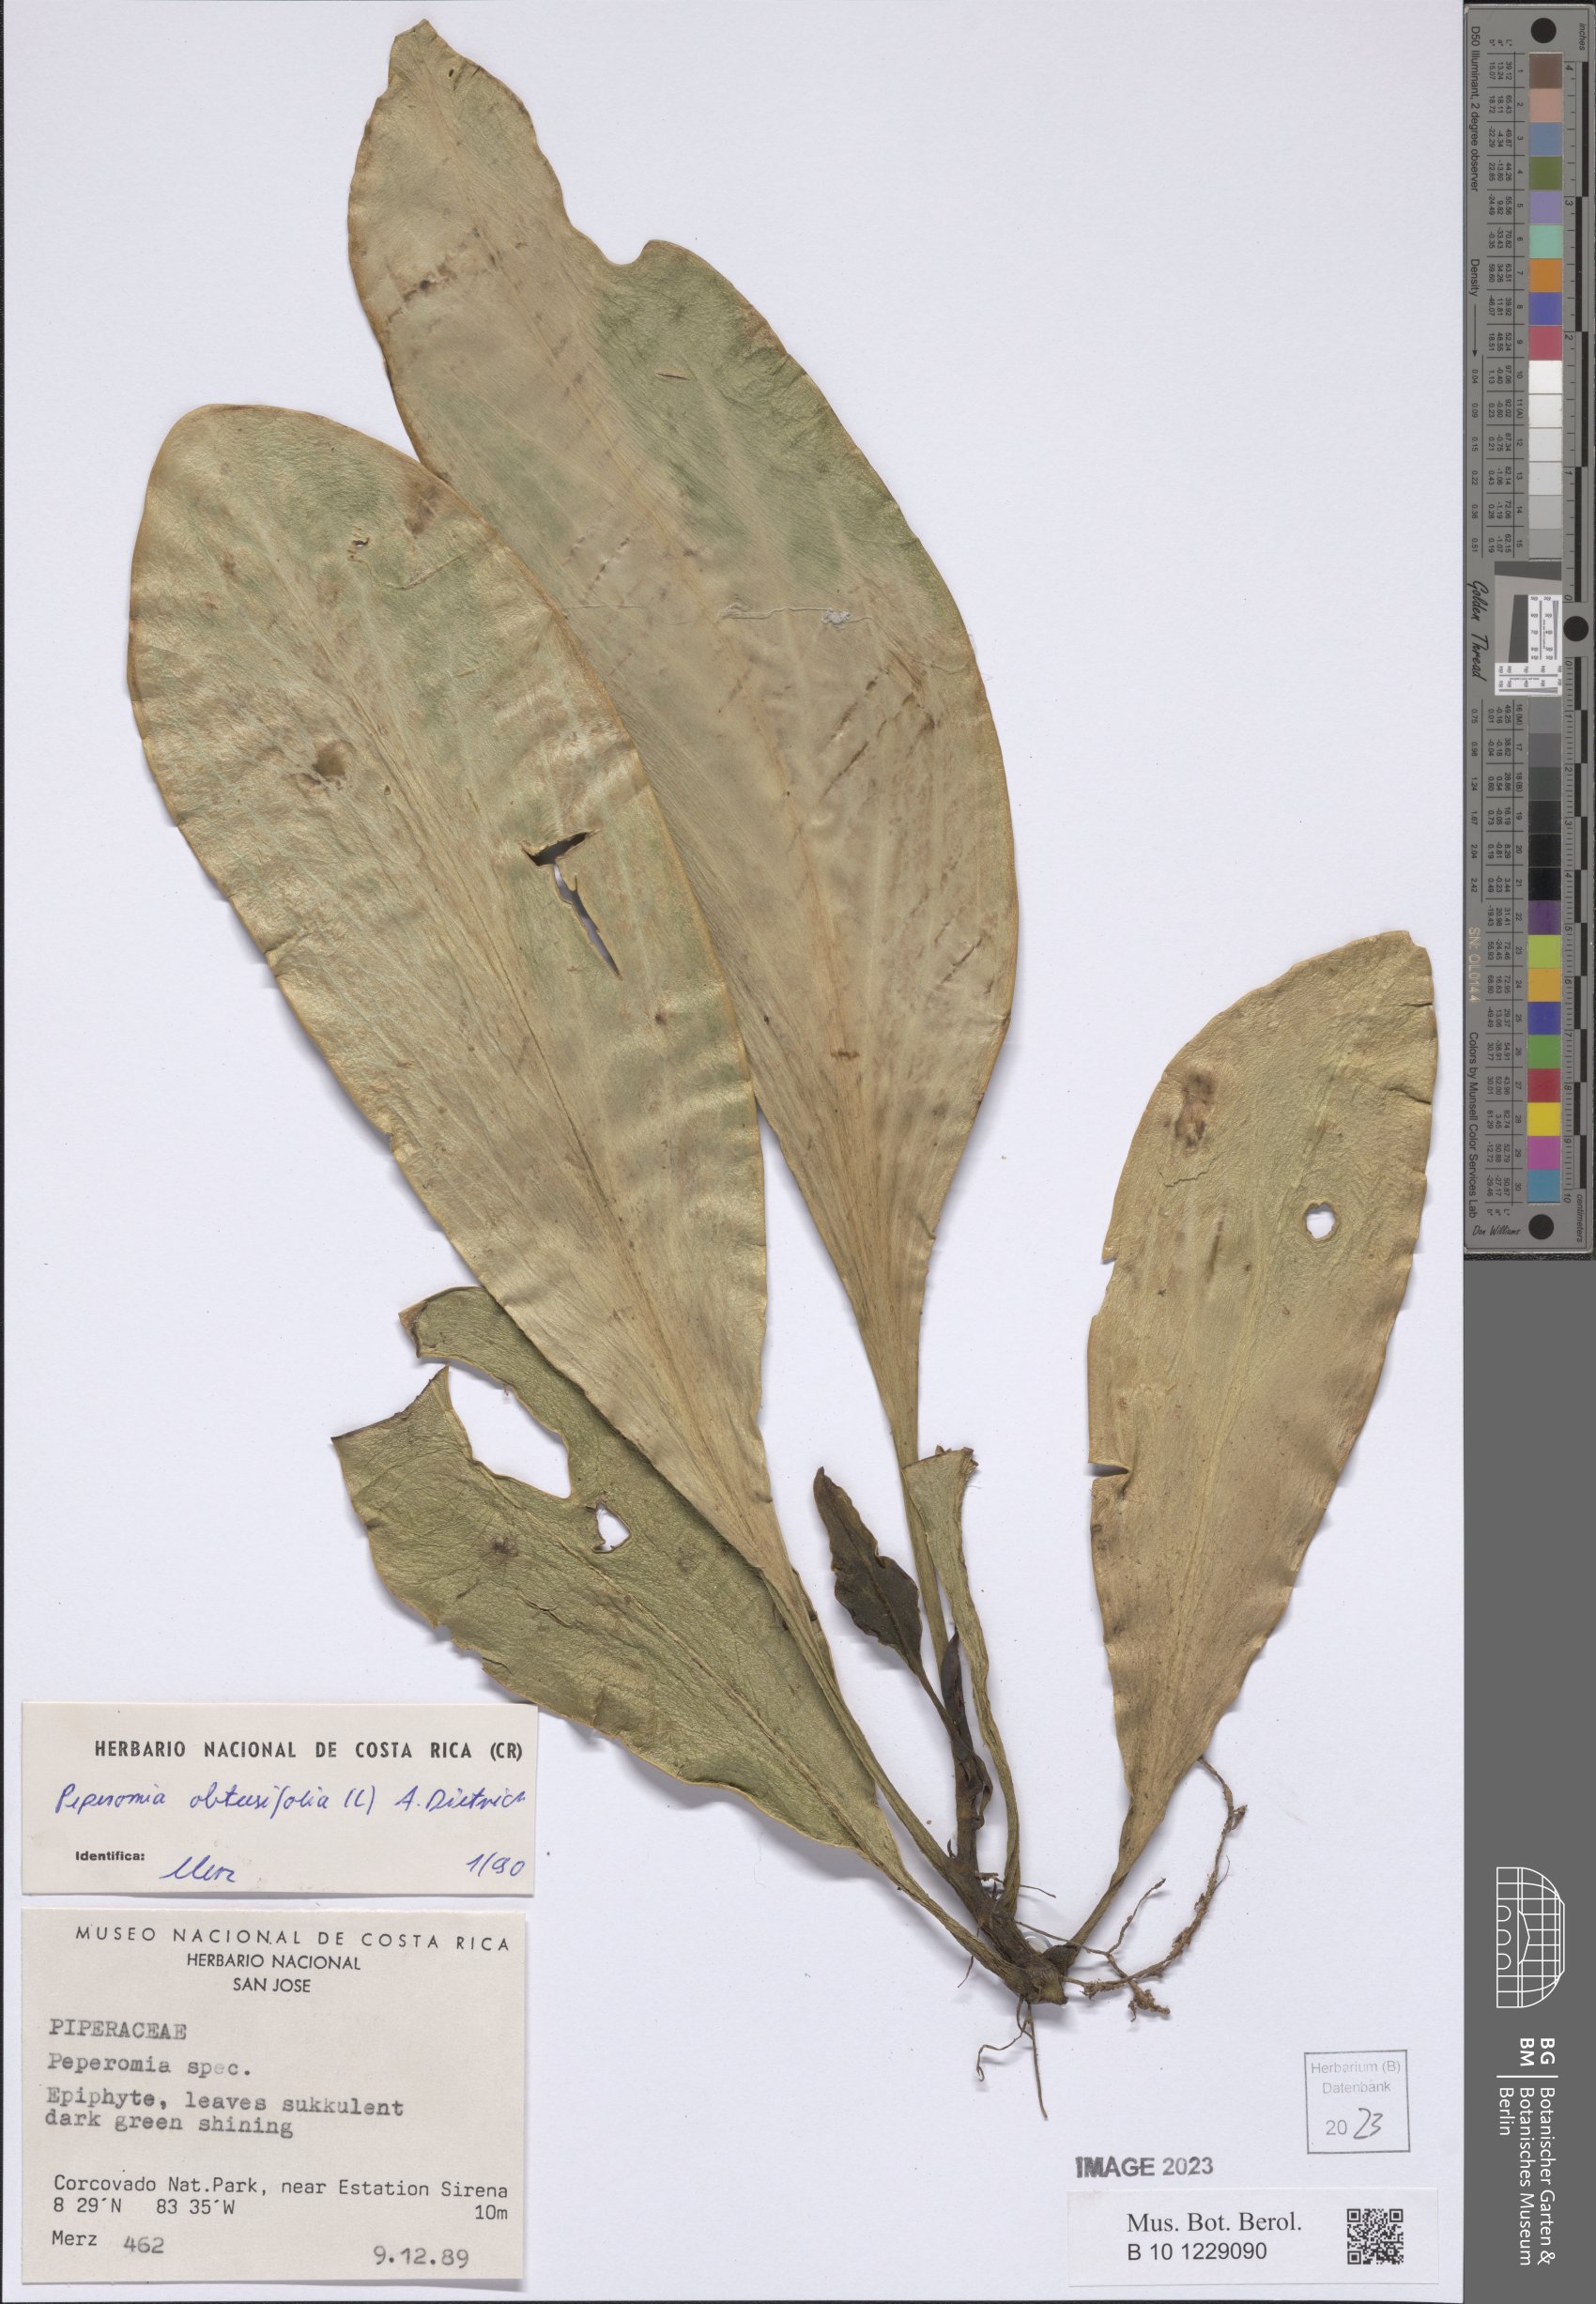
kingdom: Plantae
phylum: Tracheophyta
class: Magnoliopsida
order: Piperales
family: Piperaceae
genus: Peperomia
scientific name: Peperomia obtusifolia
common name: Baby rubberplant
